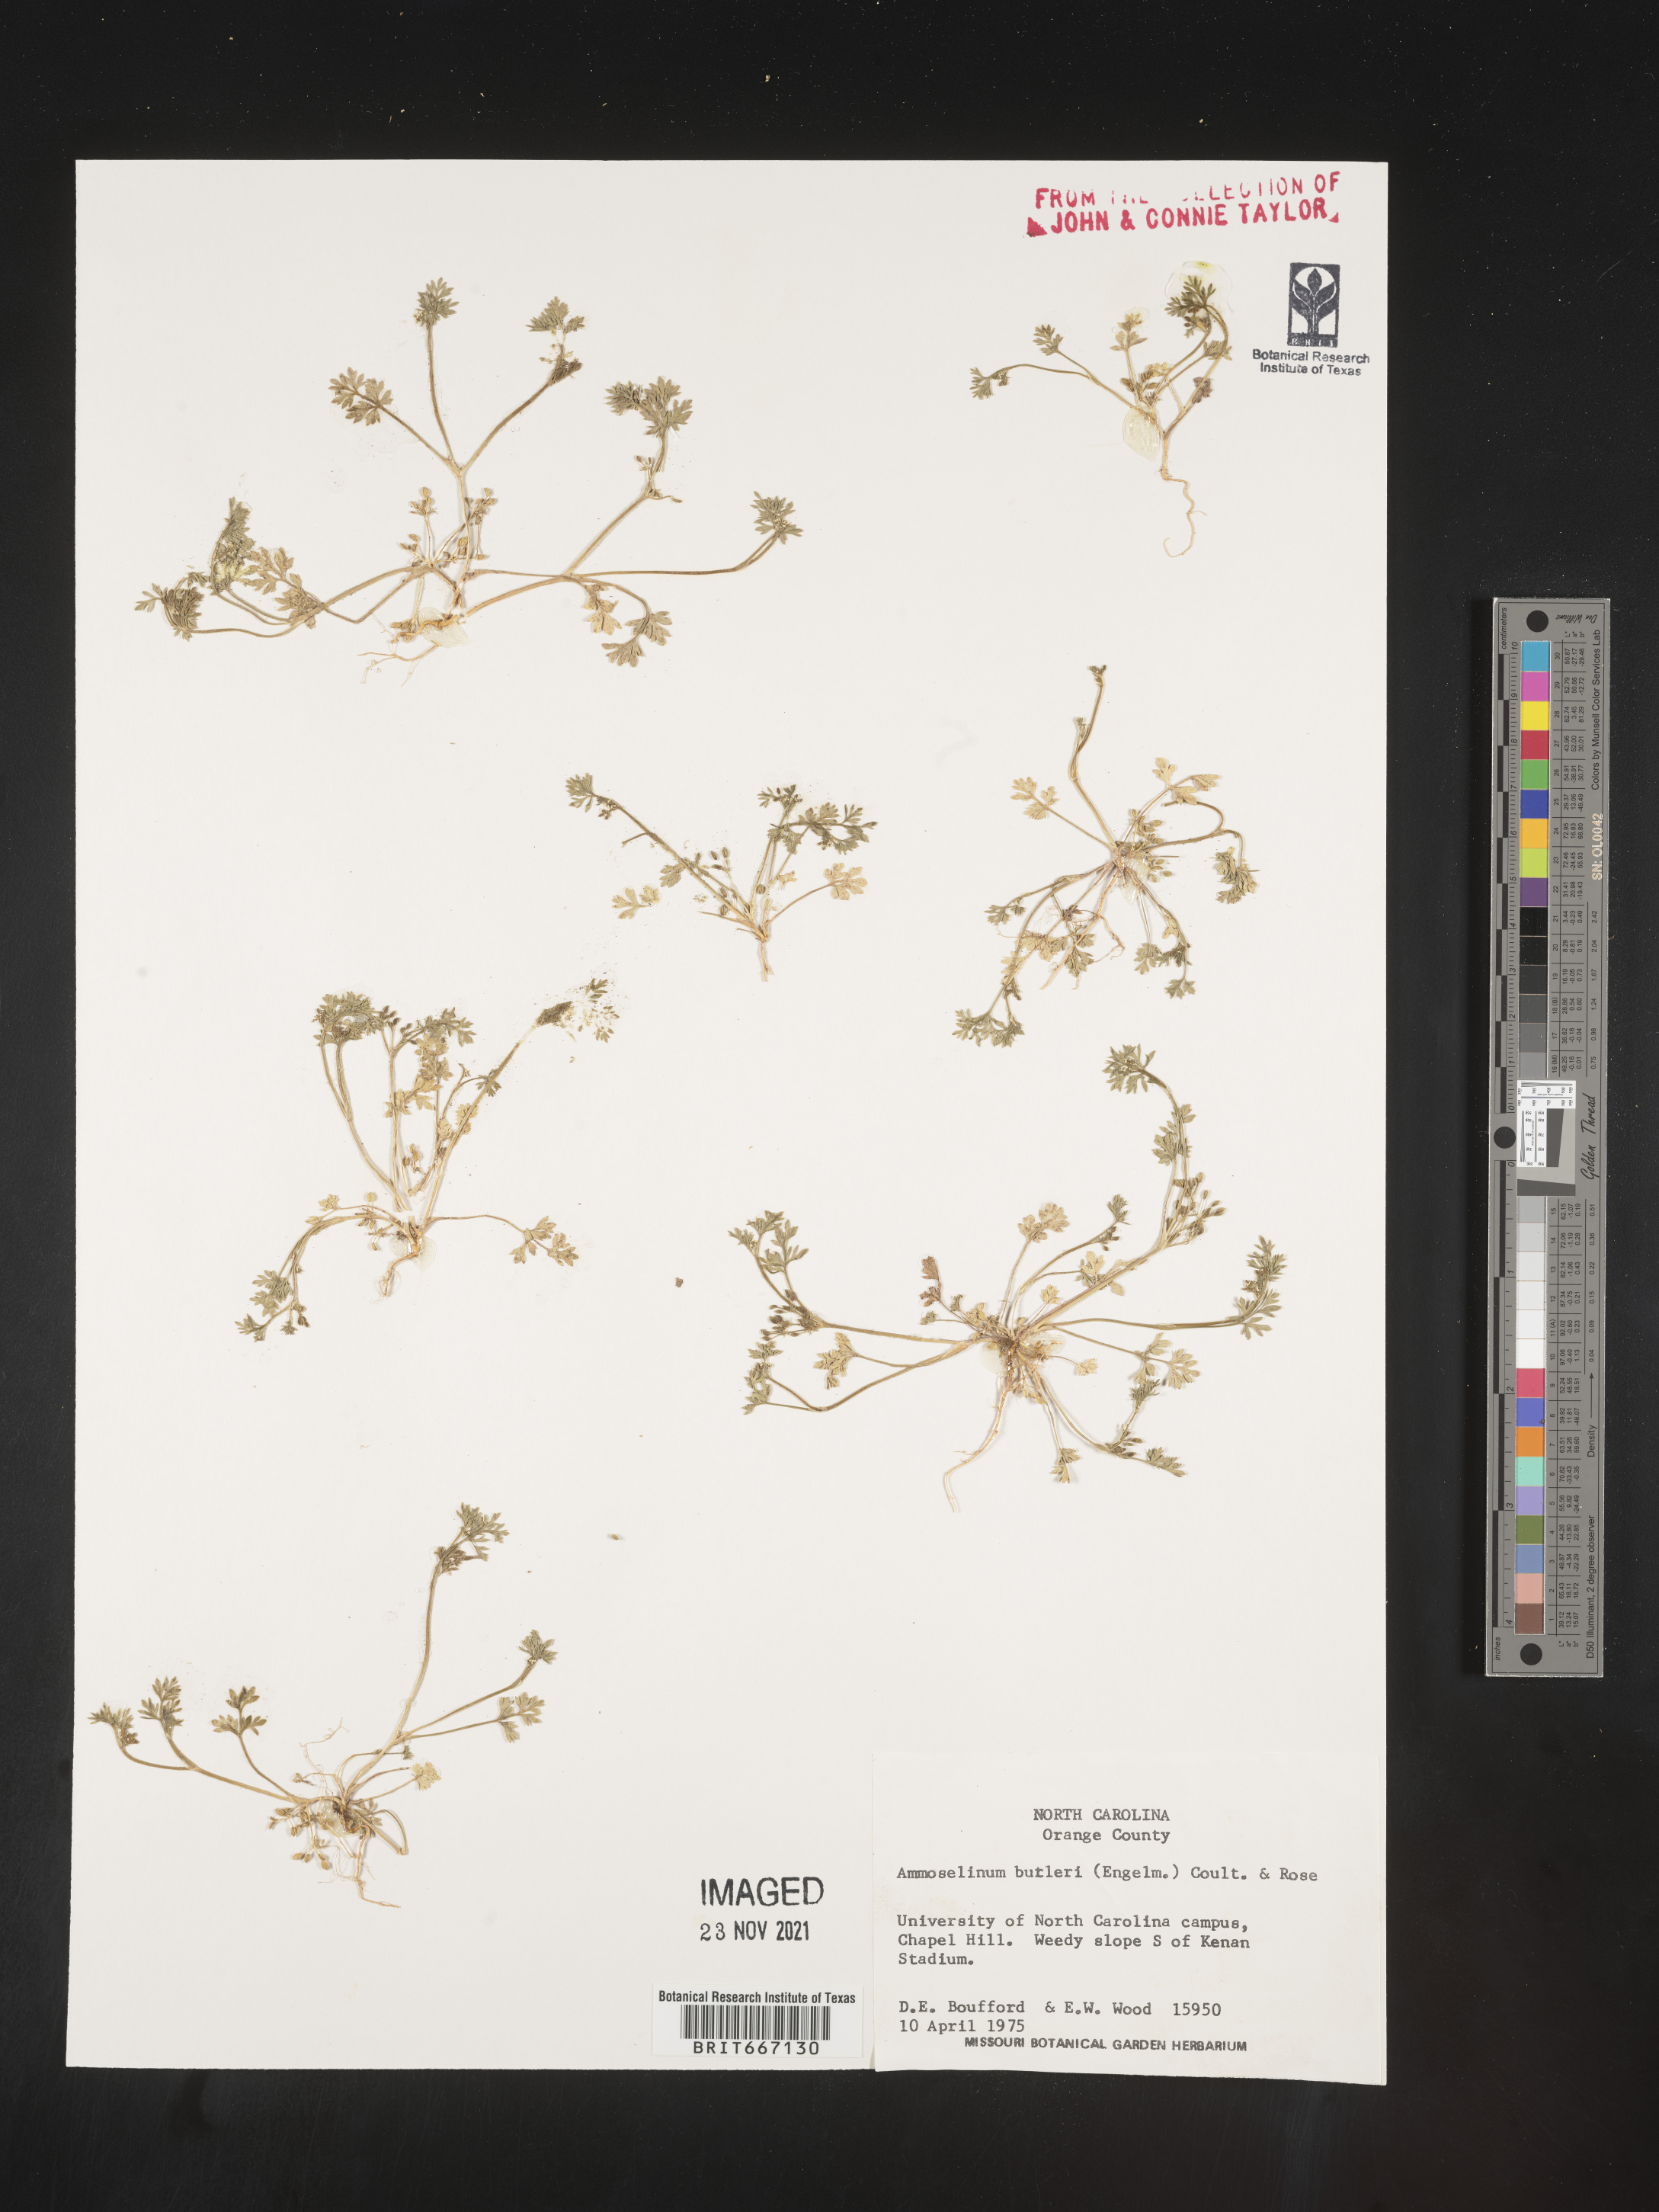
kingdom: Plantae
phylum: Tracheophyta
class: Magnoliopsida
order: Apiales
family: Apiaceae
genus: Ammoselinum
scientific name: Ammoselinum butleri
